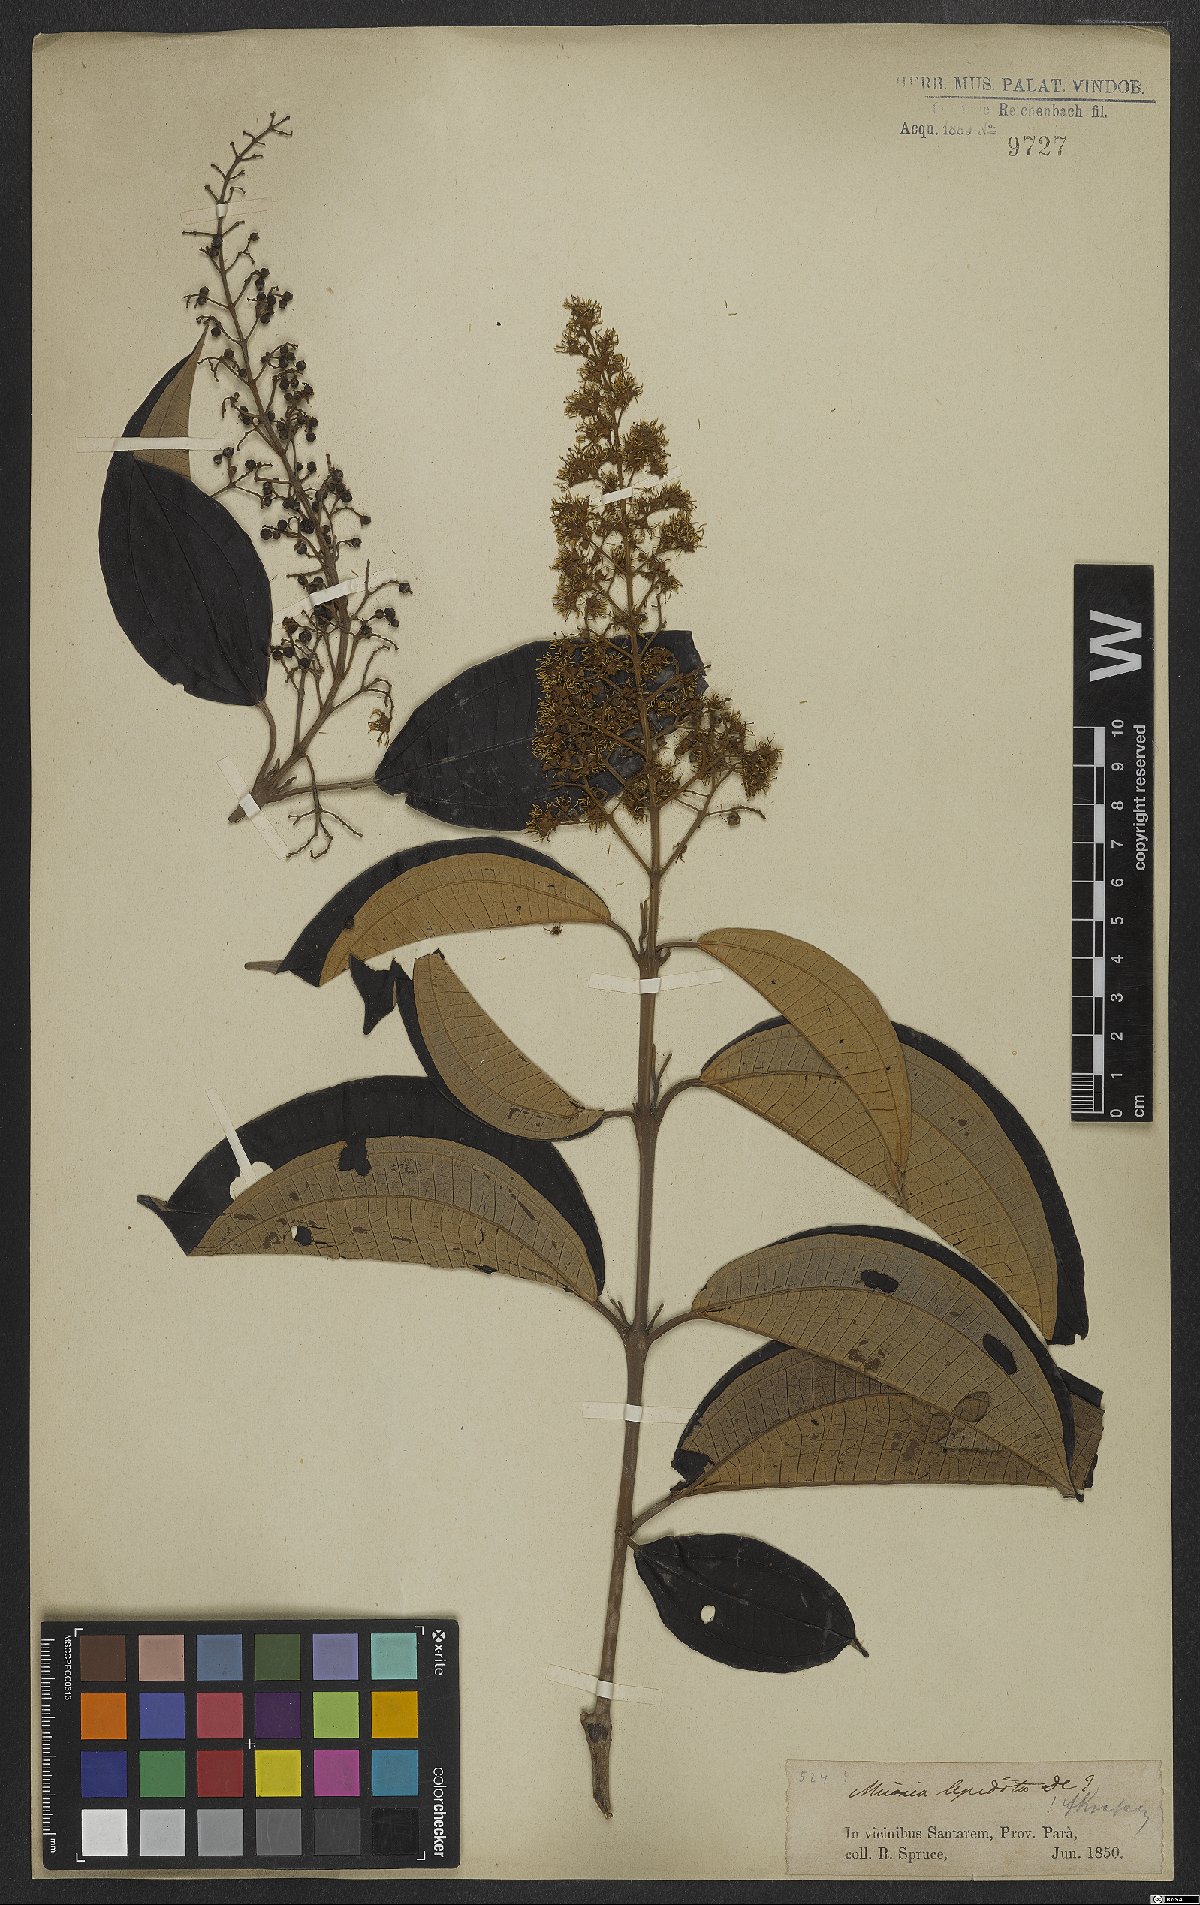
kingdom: Plantae
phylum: Tracheophyta
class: Magnoliopsida
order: Myrtales
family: Melastomataceae
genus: Miconia
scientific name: Miconia lepidota
